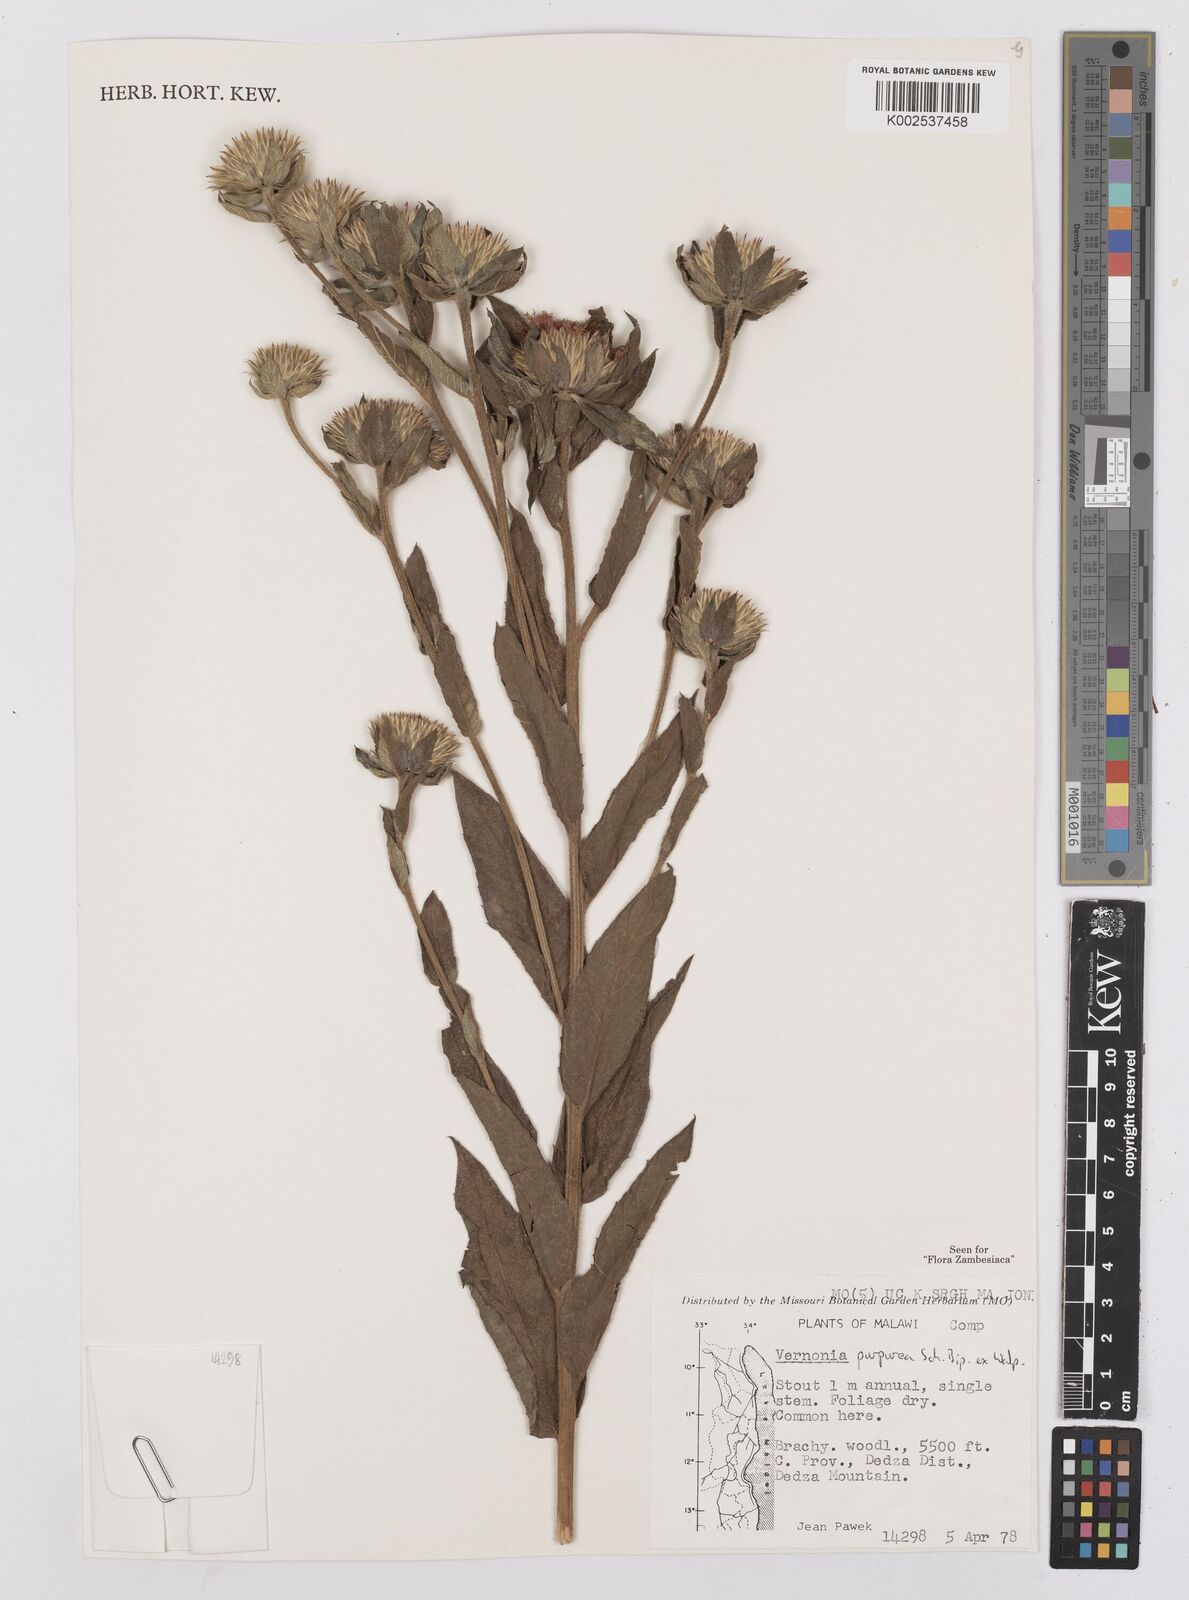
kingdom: Plantae
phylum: Tracheophyta
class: Magnoliopsida
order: Asterales
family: Asteraceae
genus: Nothovernonia
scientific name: Nothovernonia purpurea
